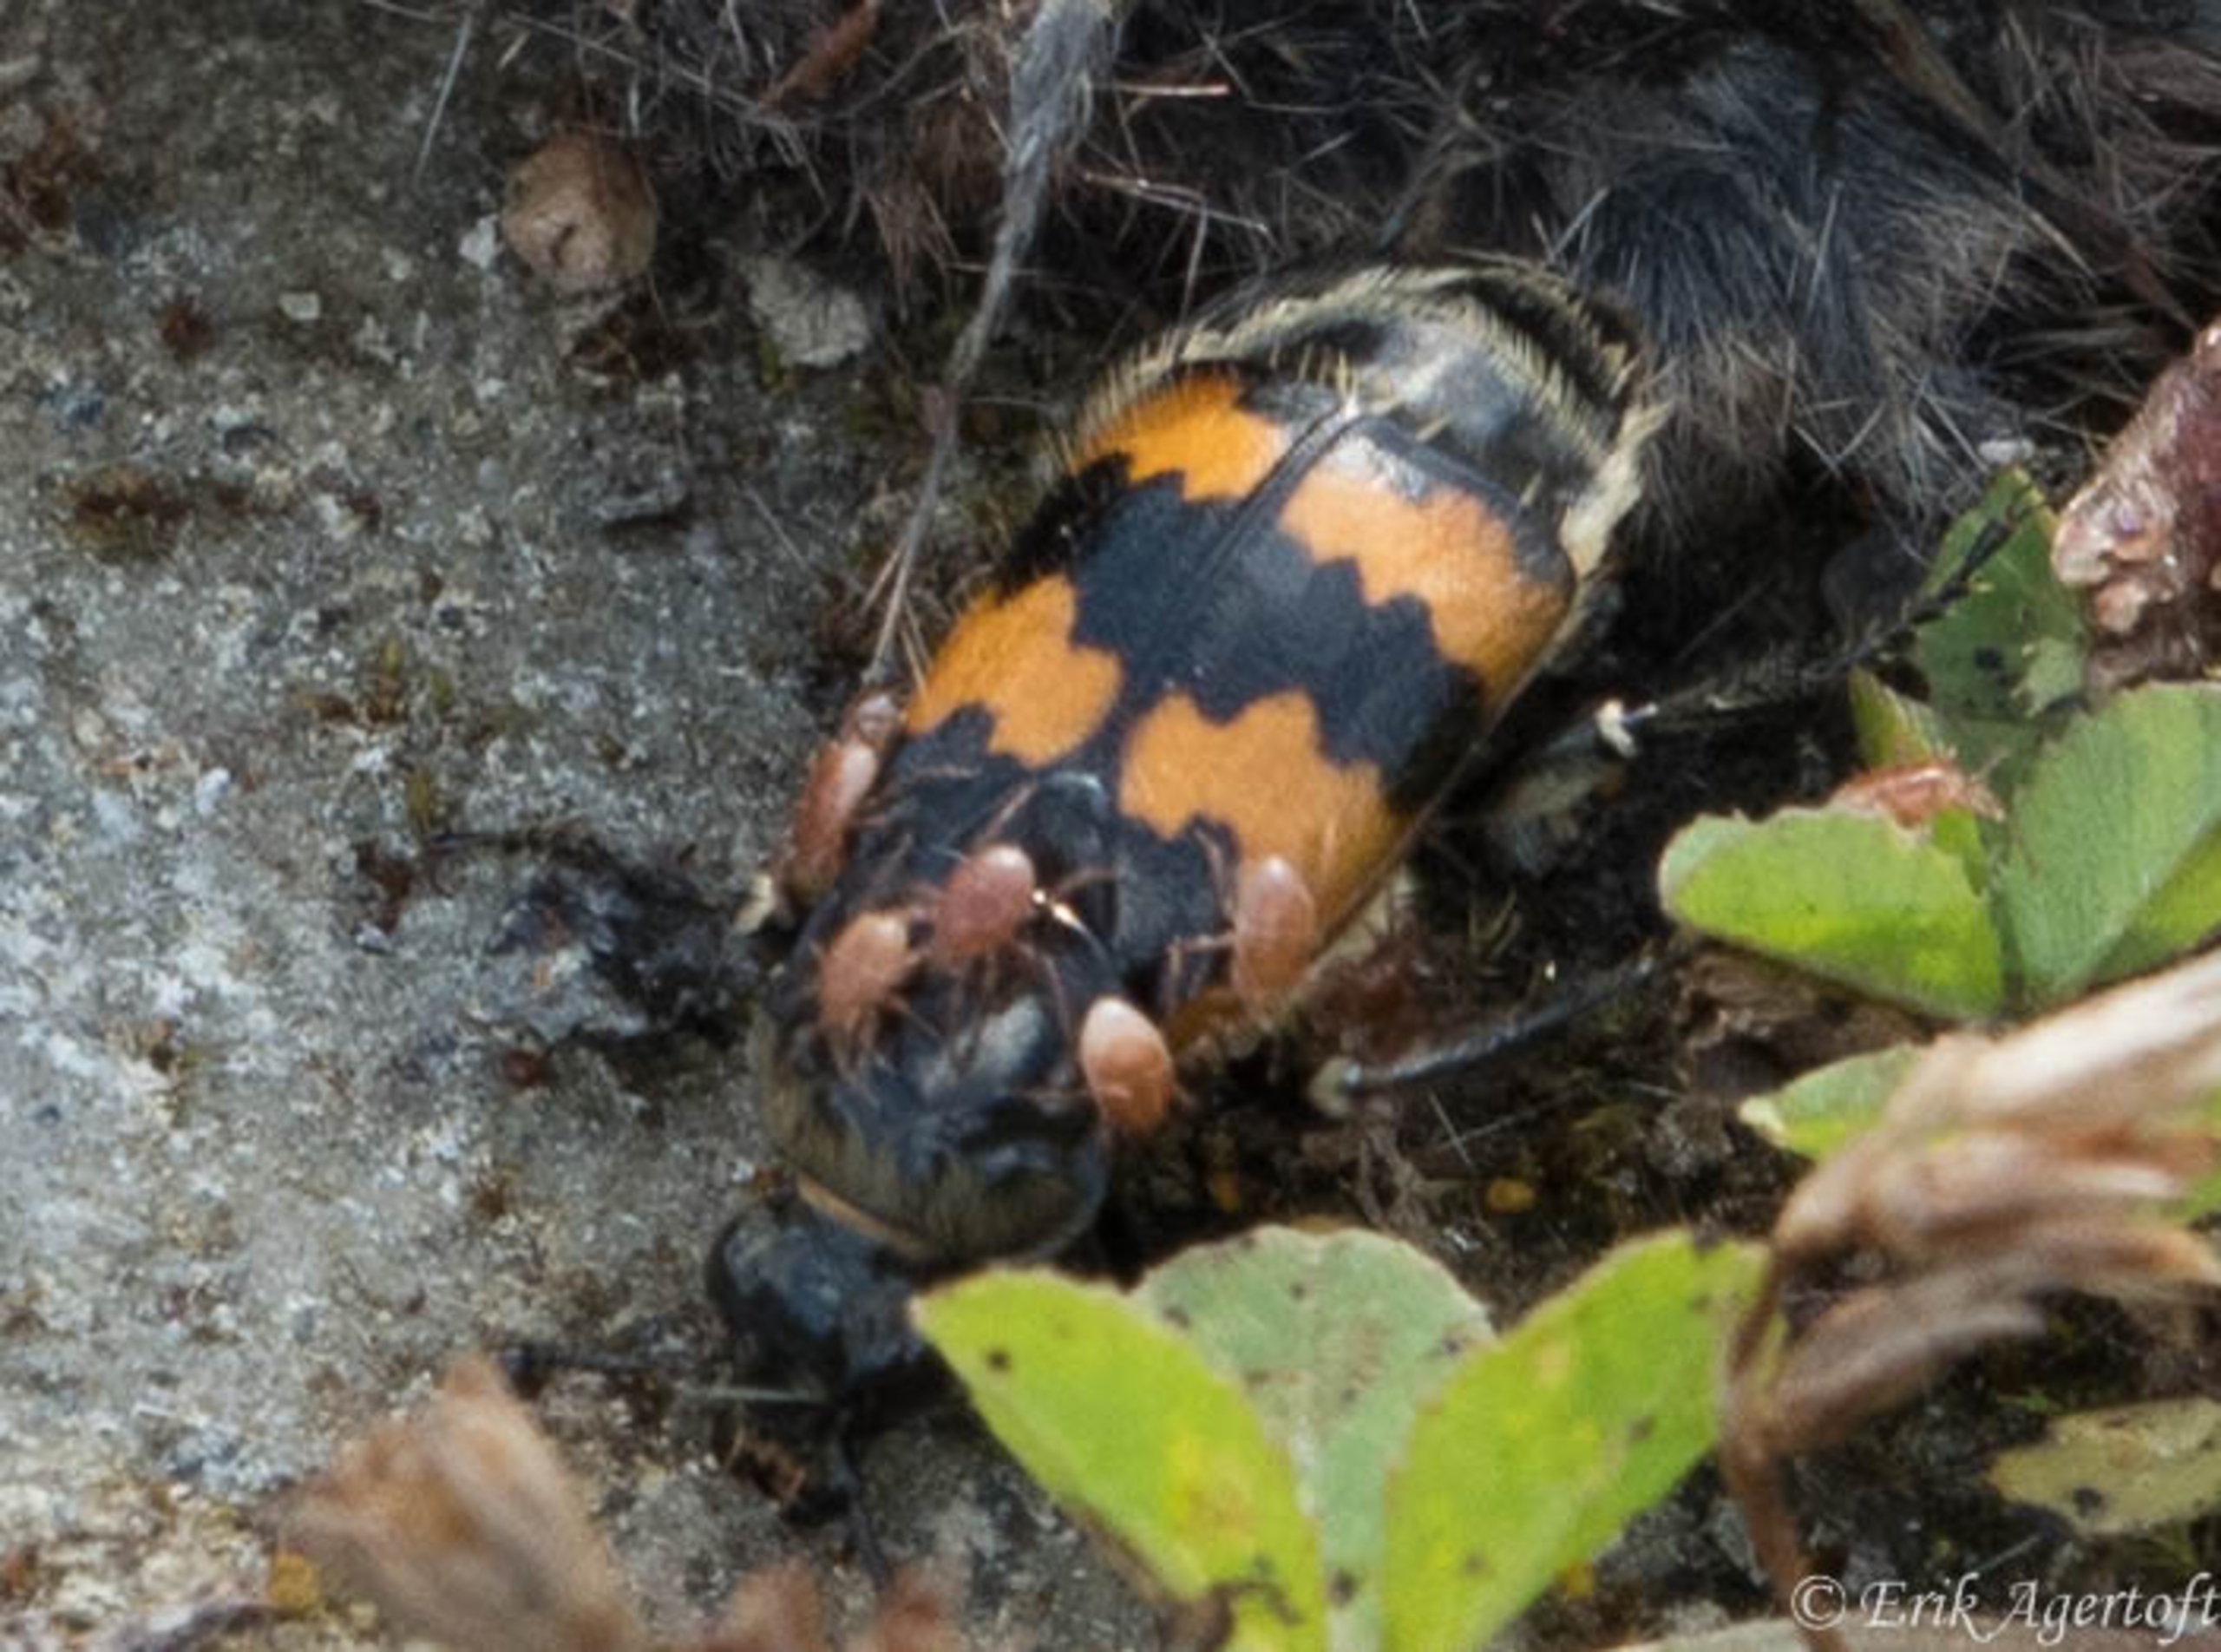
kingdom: Animalia
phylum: Arthropoda
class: Insecta
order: Coleoptera
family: Staphylinidae
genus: Nicrophorus
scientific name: Nicrophorus vespilloides
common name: Sortkøllet ådselgraver
